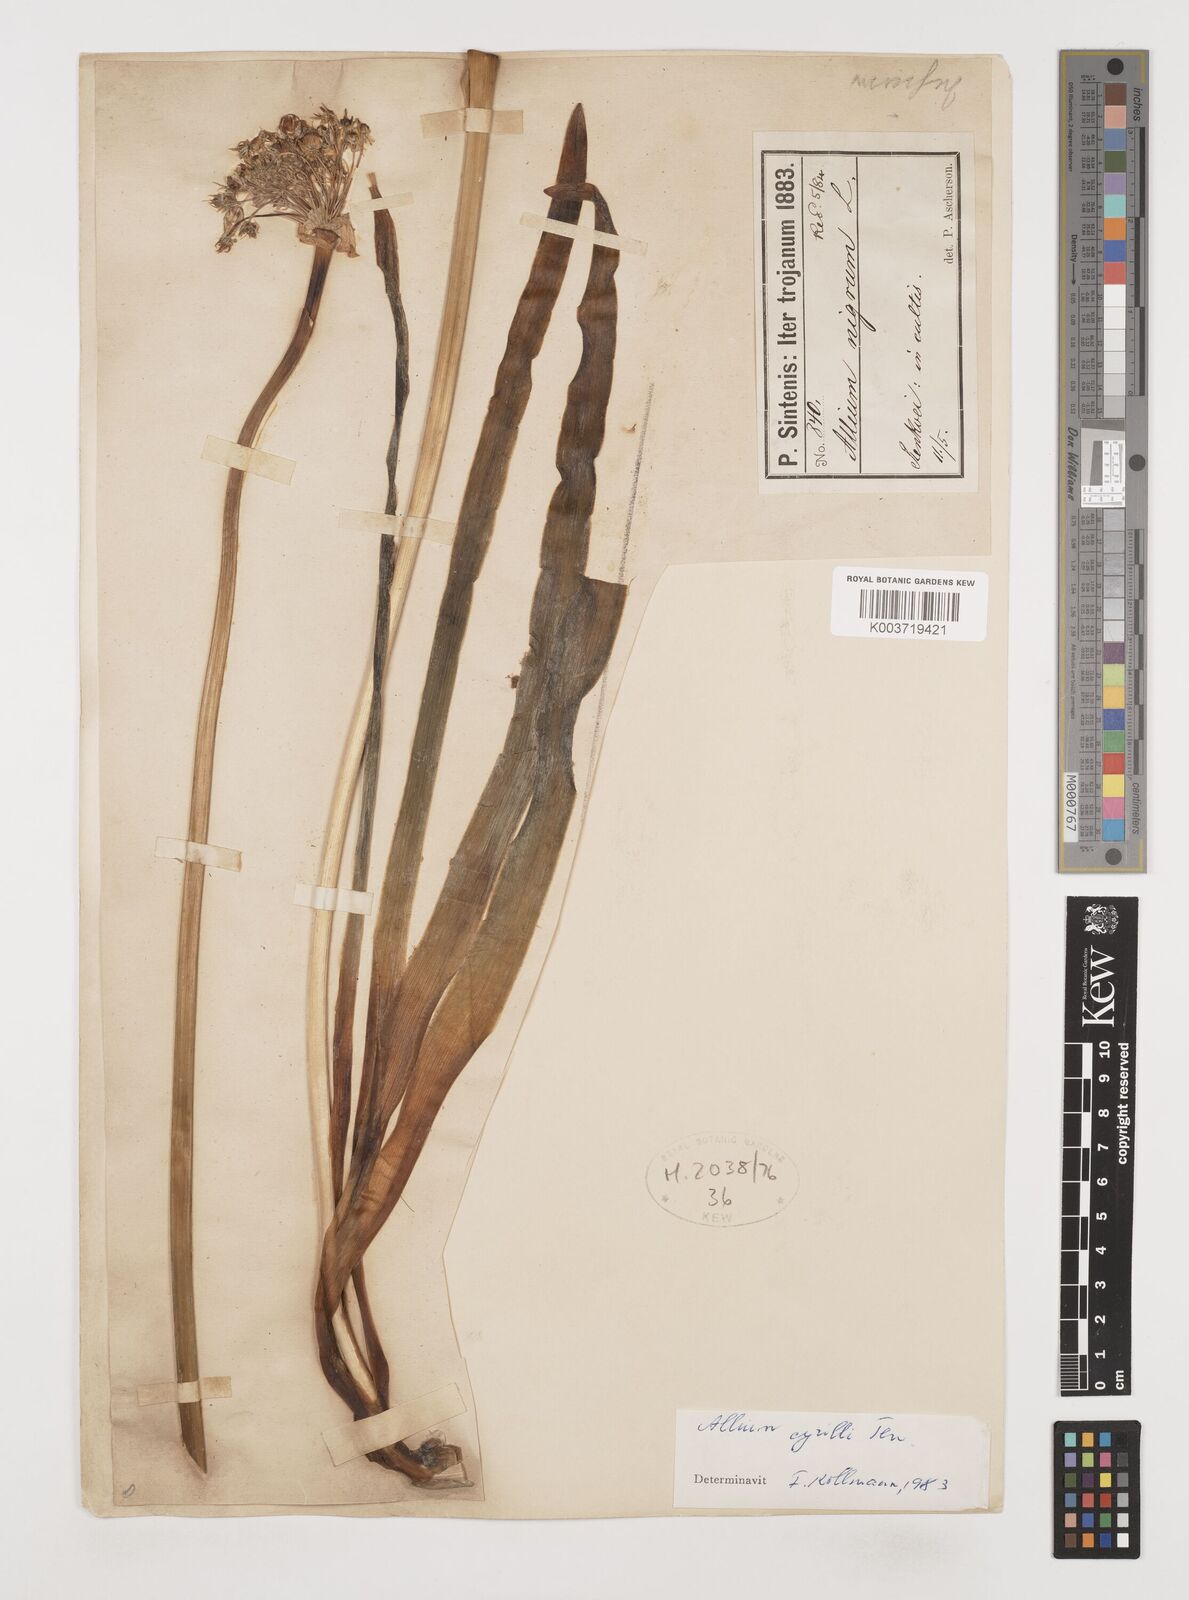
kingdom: Plantae
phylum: Tracheophyta
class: Liliopsida
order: Asparagales
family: Amaryllidaceae
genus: Allium
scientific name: Allium cyrilli
